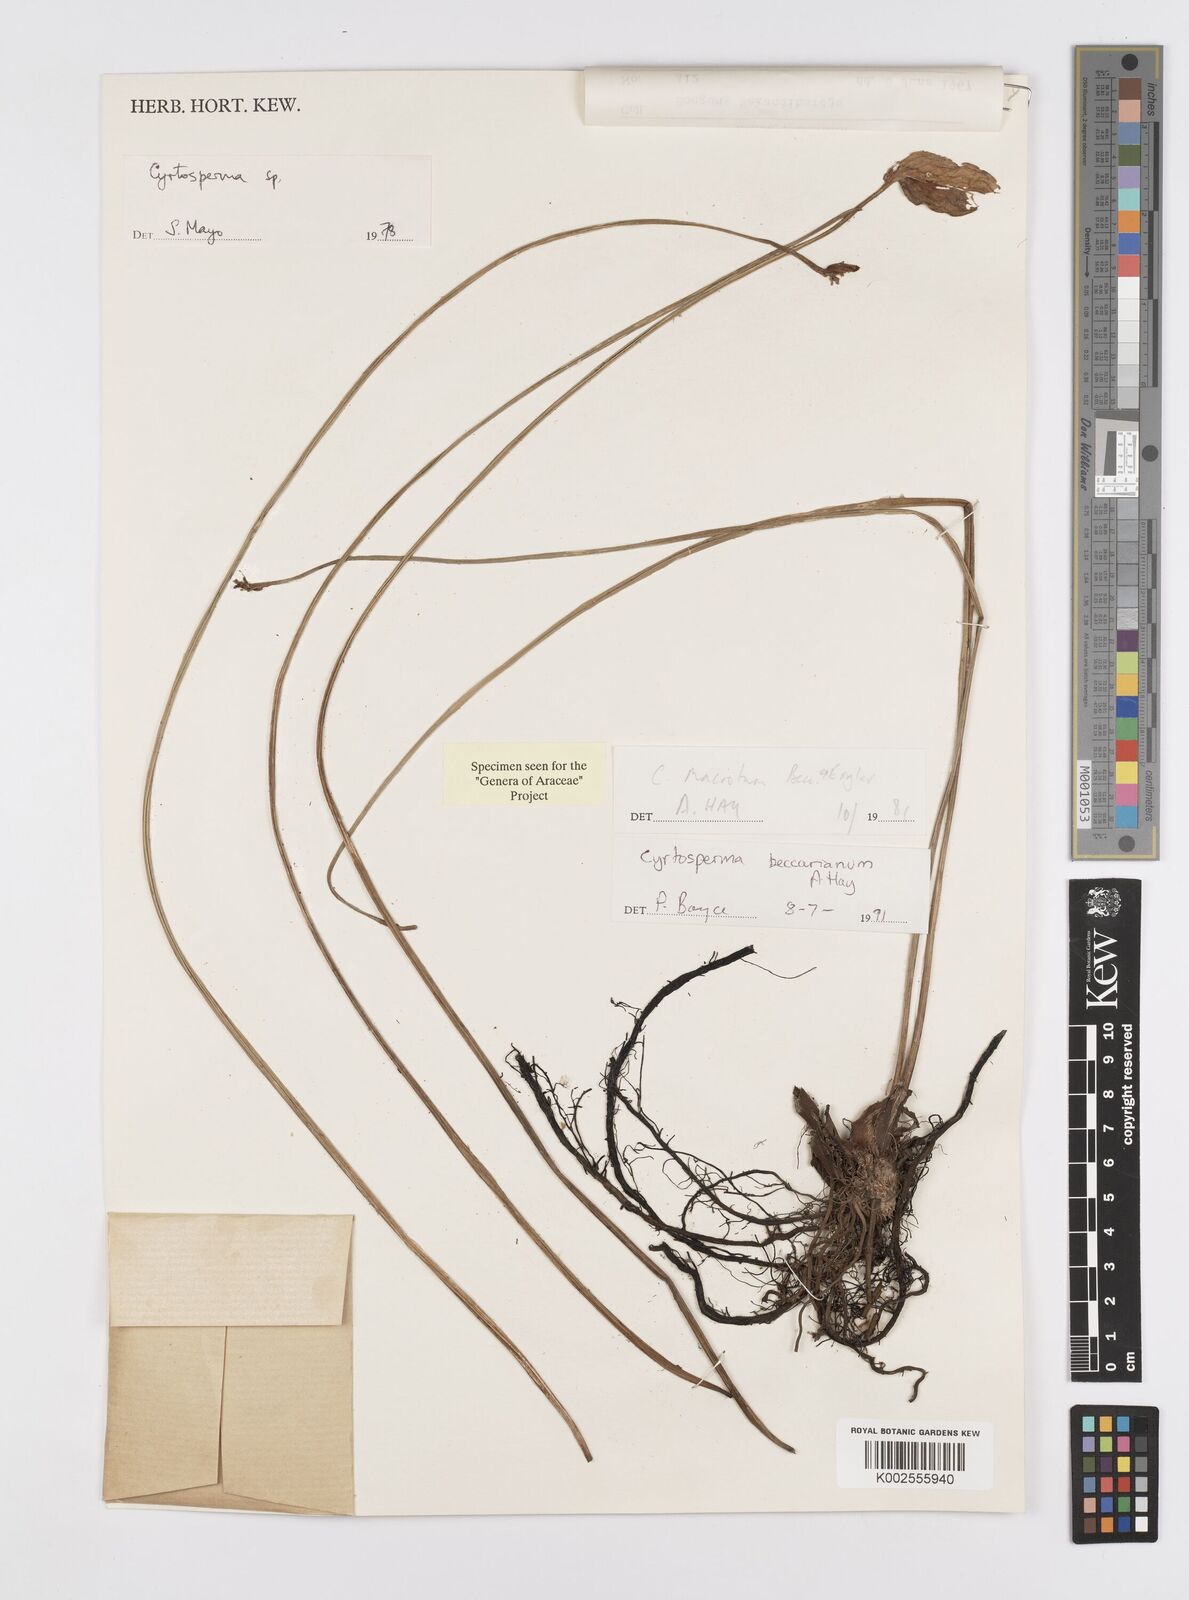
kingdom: Plantae
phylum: Tracheophyta
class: Liliopsida
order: Alismatales
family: Araceae
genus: Cyrtosperma
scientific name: Cyrtosperma beccarianum
